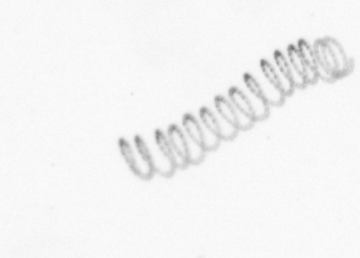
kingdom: Chromista
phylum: Ochrophyta
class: Bacillariophyceae
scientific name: Bacillariophyceae
